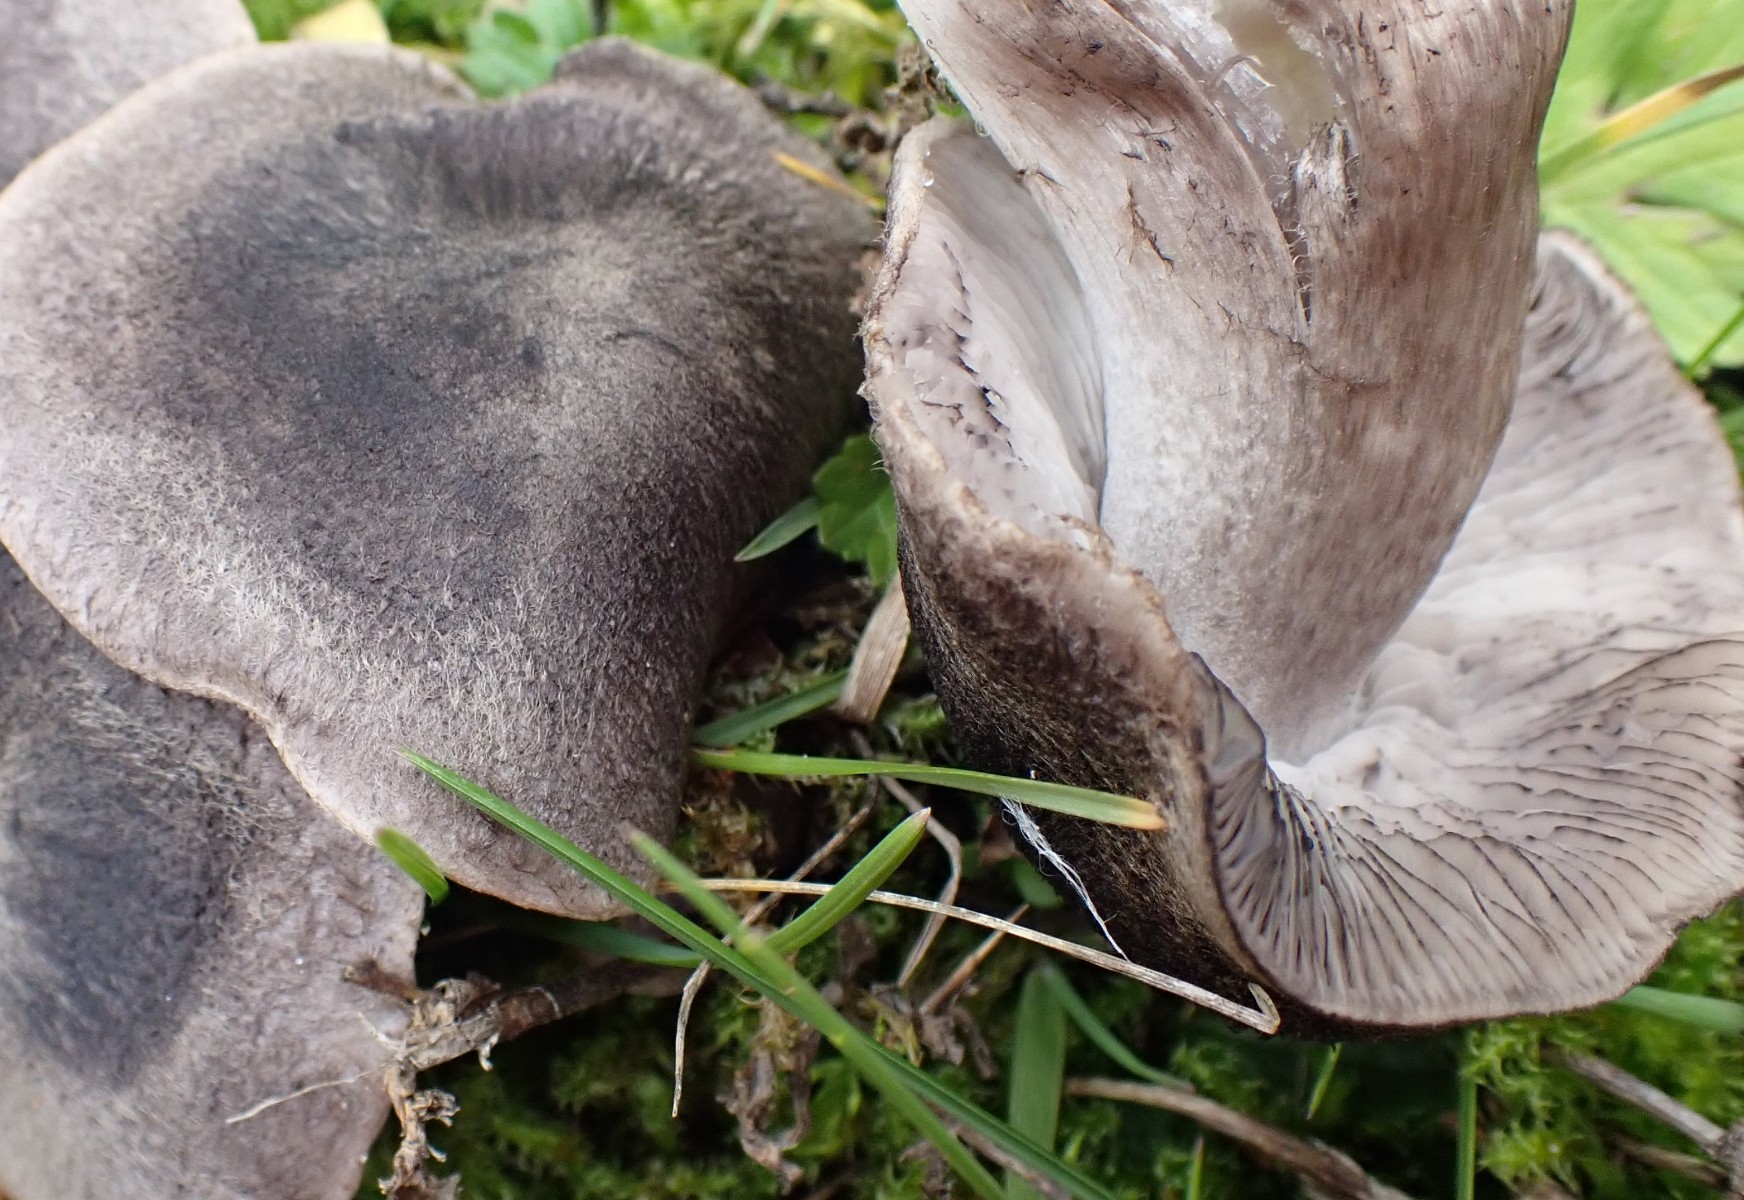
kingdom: Fungi
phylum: Basidiomycota
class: Agaricomycetes
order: Agaricales
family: Tricholomataceae
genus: Tricholoma
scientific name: Tricholoma
